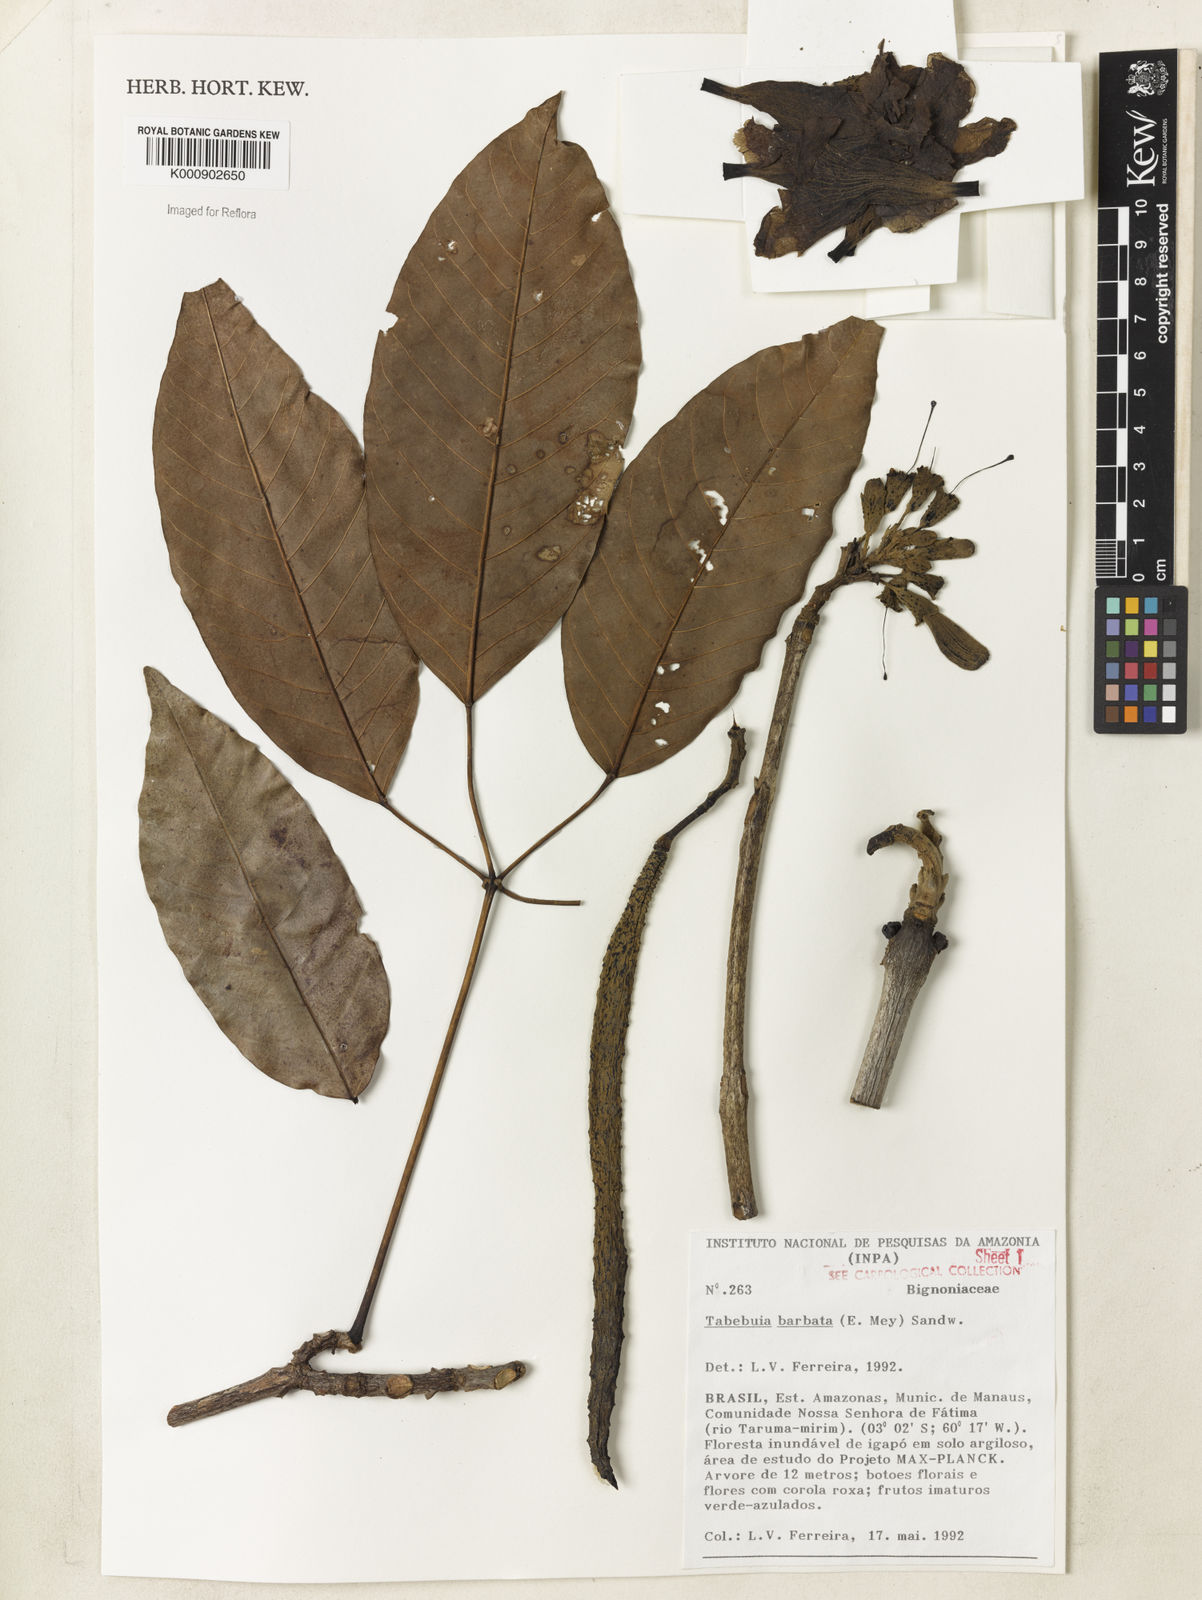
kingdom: Plantae
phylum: Tracheophyta
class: Magnoliopsida
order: Lamiales
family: Bignoniaceae
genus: Handroanthus
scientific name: Handroanthus barbatus
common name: Trumpet trees
